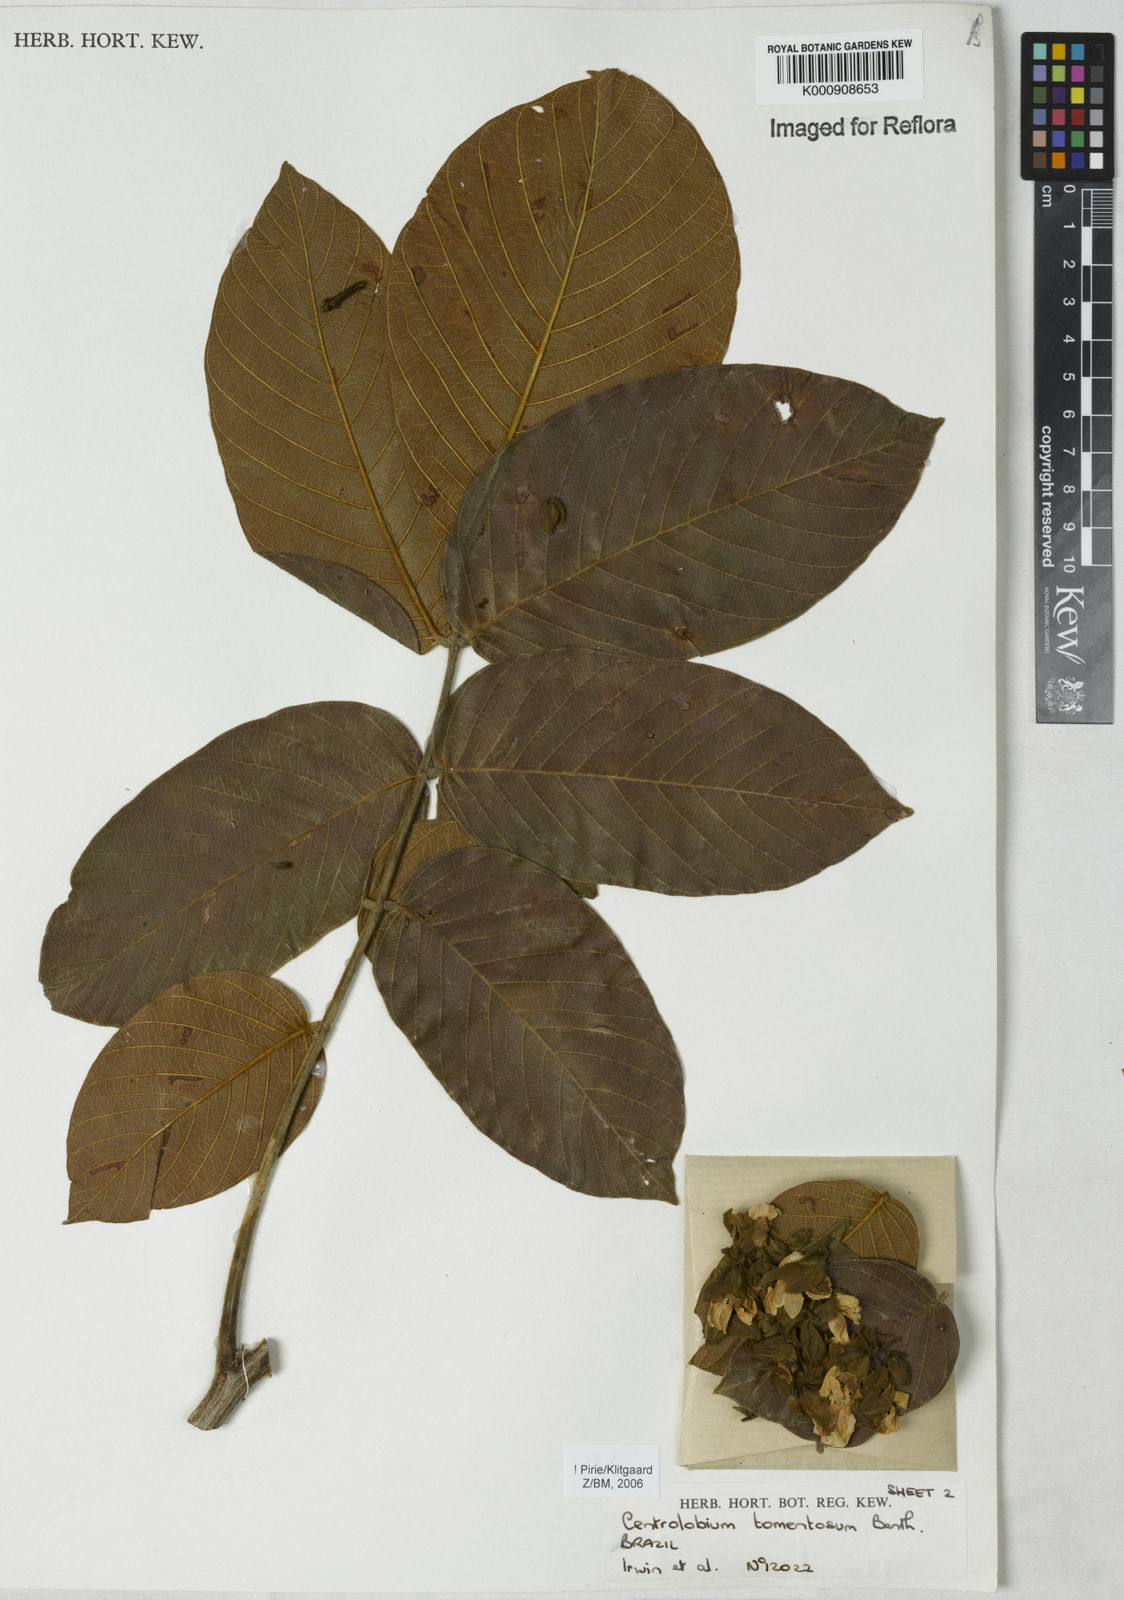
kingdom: Plantae
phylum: Tracheophyta
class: Magnoliopsida
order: Fabales
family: Fabaceae
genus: Centrolobium
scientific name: Centrolobium tomentosum
